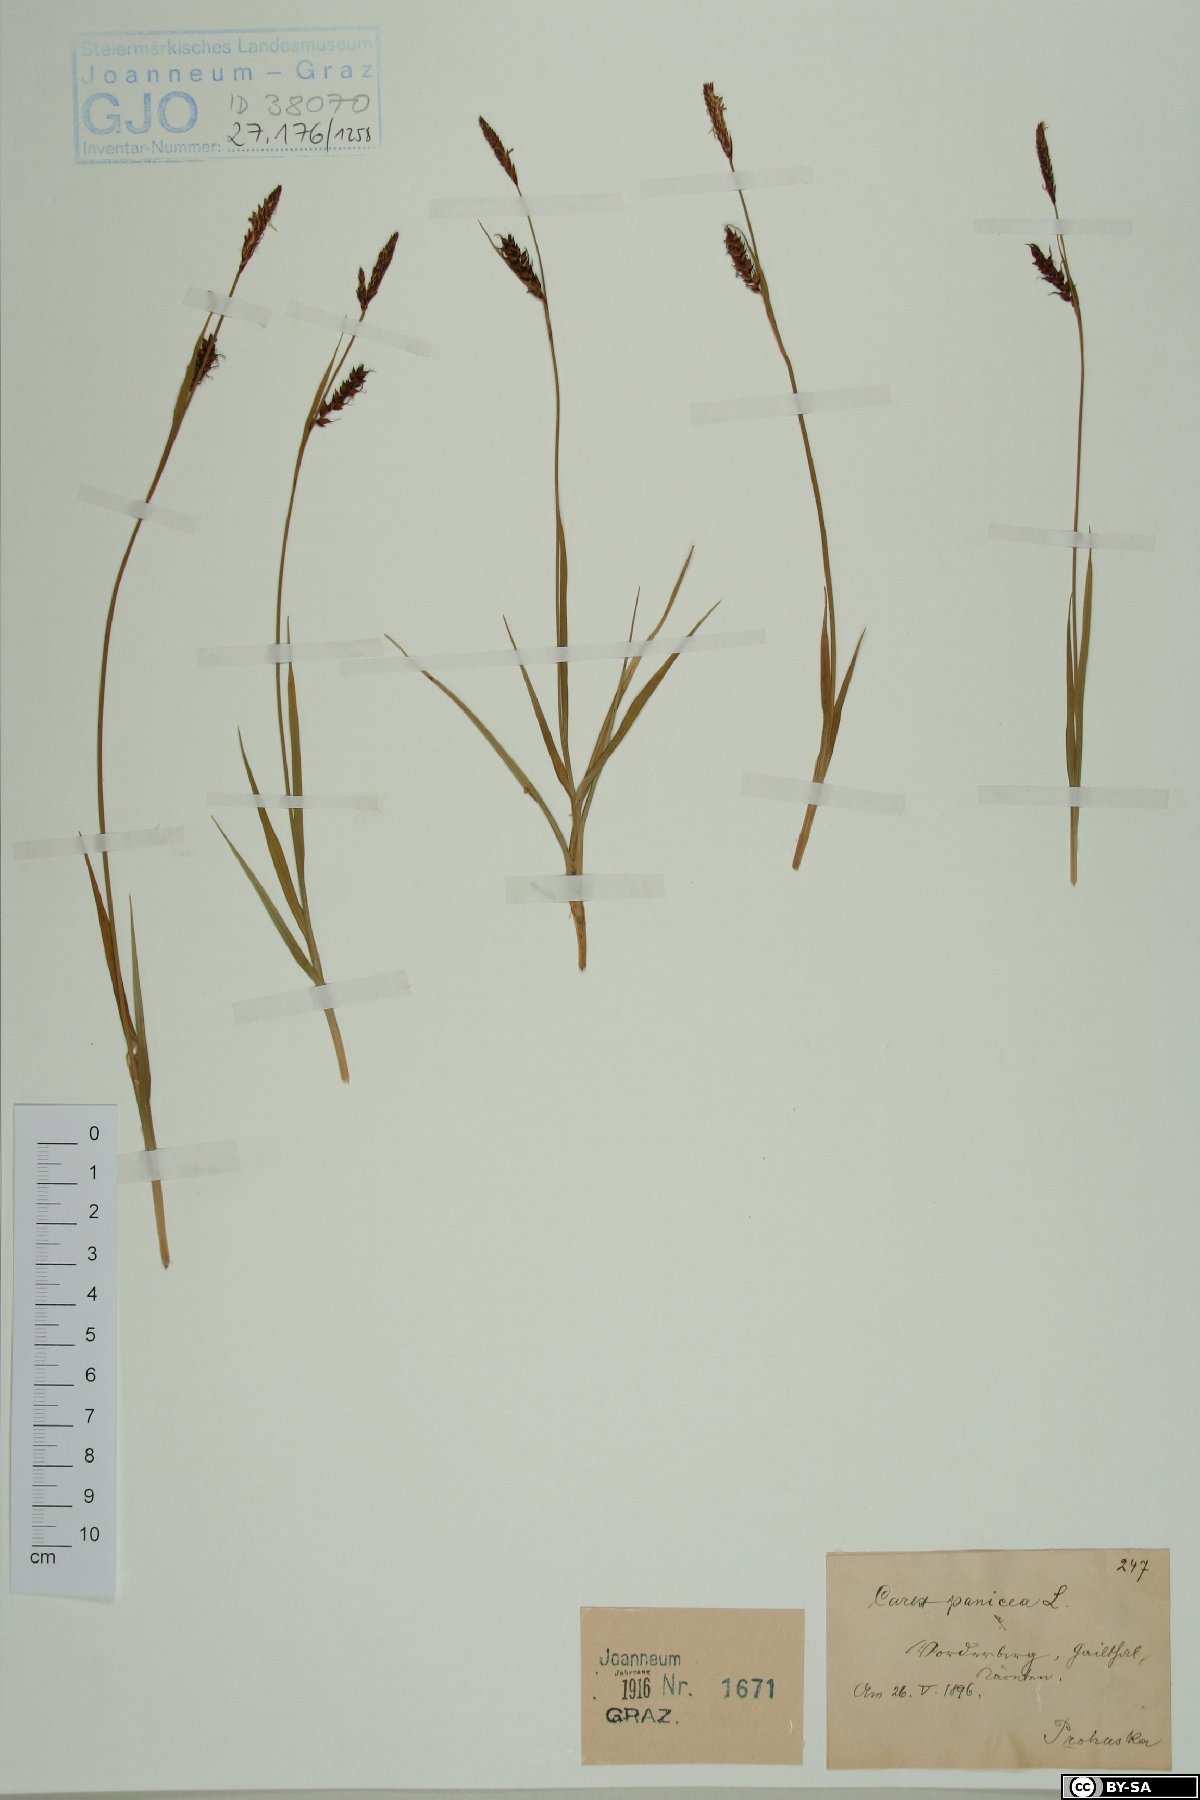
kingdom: Plantae
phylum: Tracheophyta
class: Liliopsida
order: Poales
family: Cyperaceae
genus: Carex
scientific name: Carex panicea
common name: Carnation sedge
